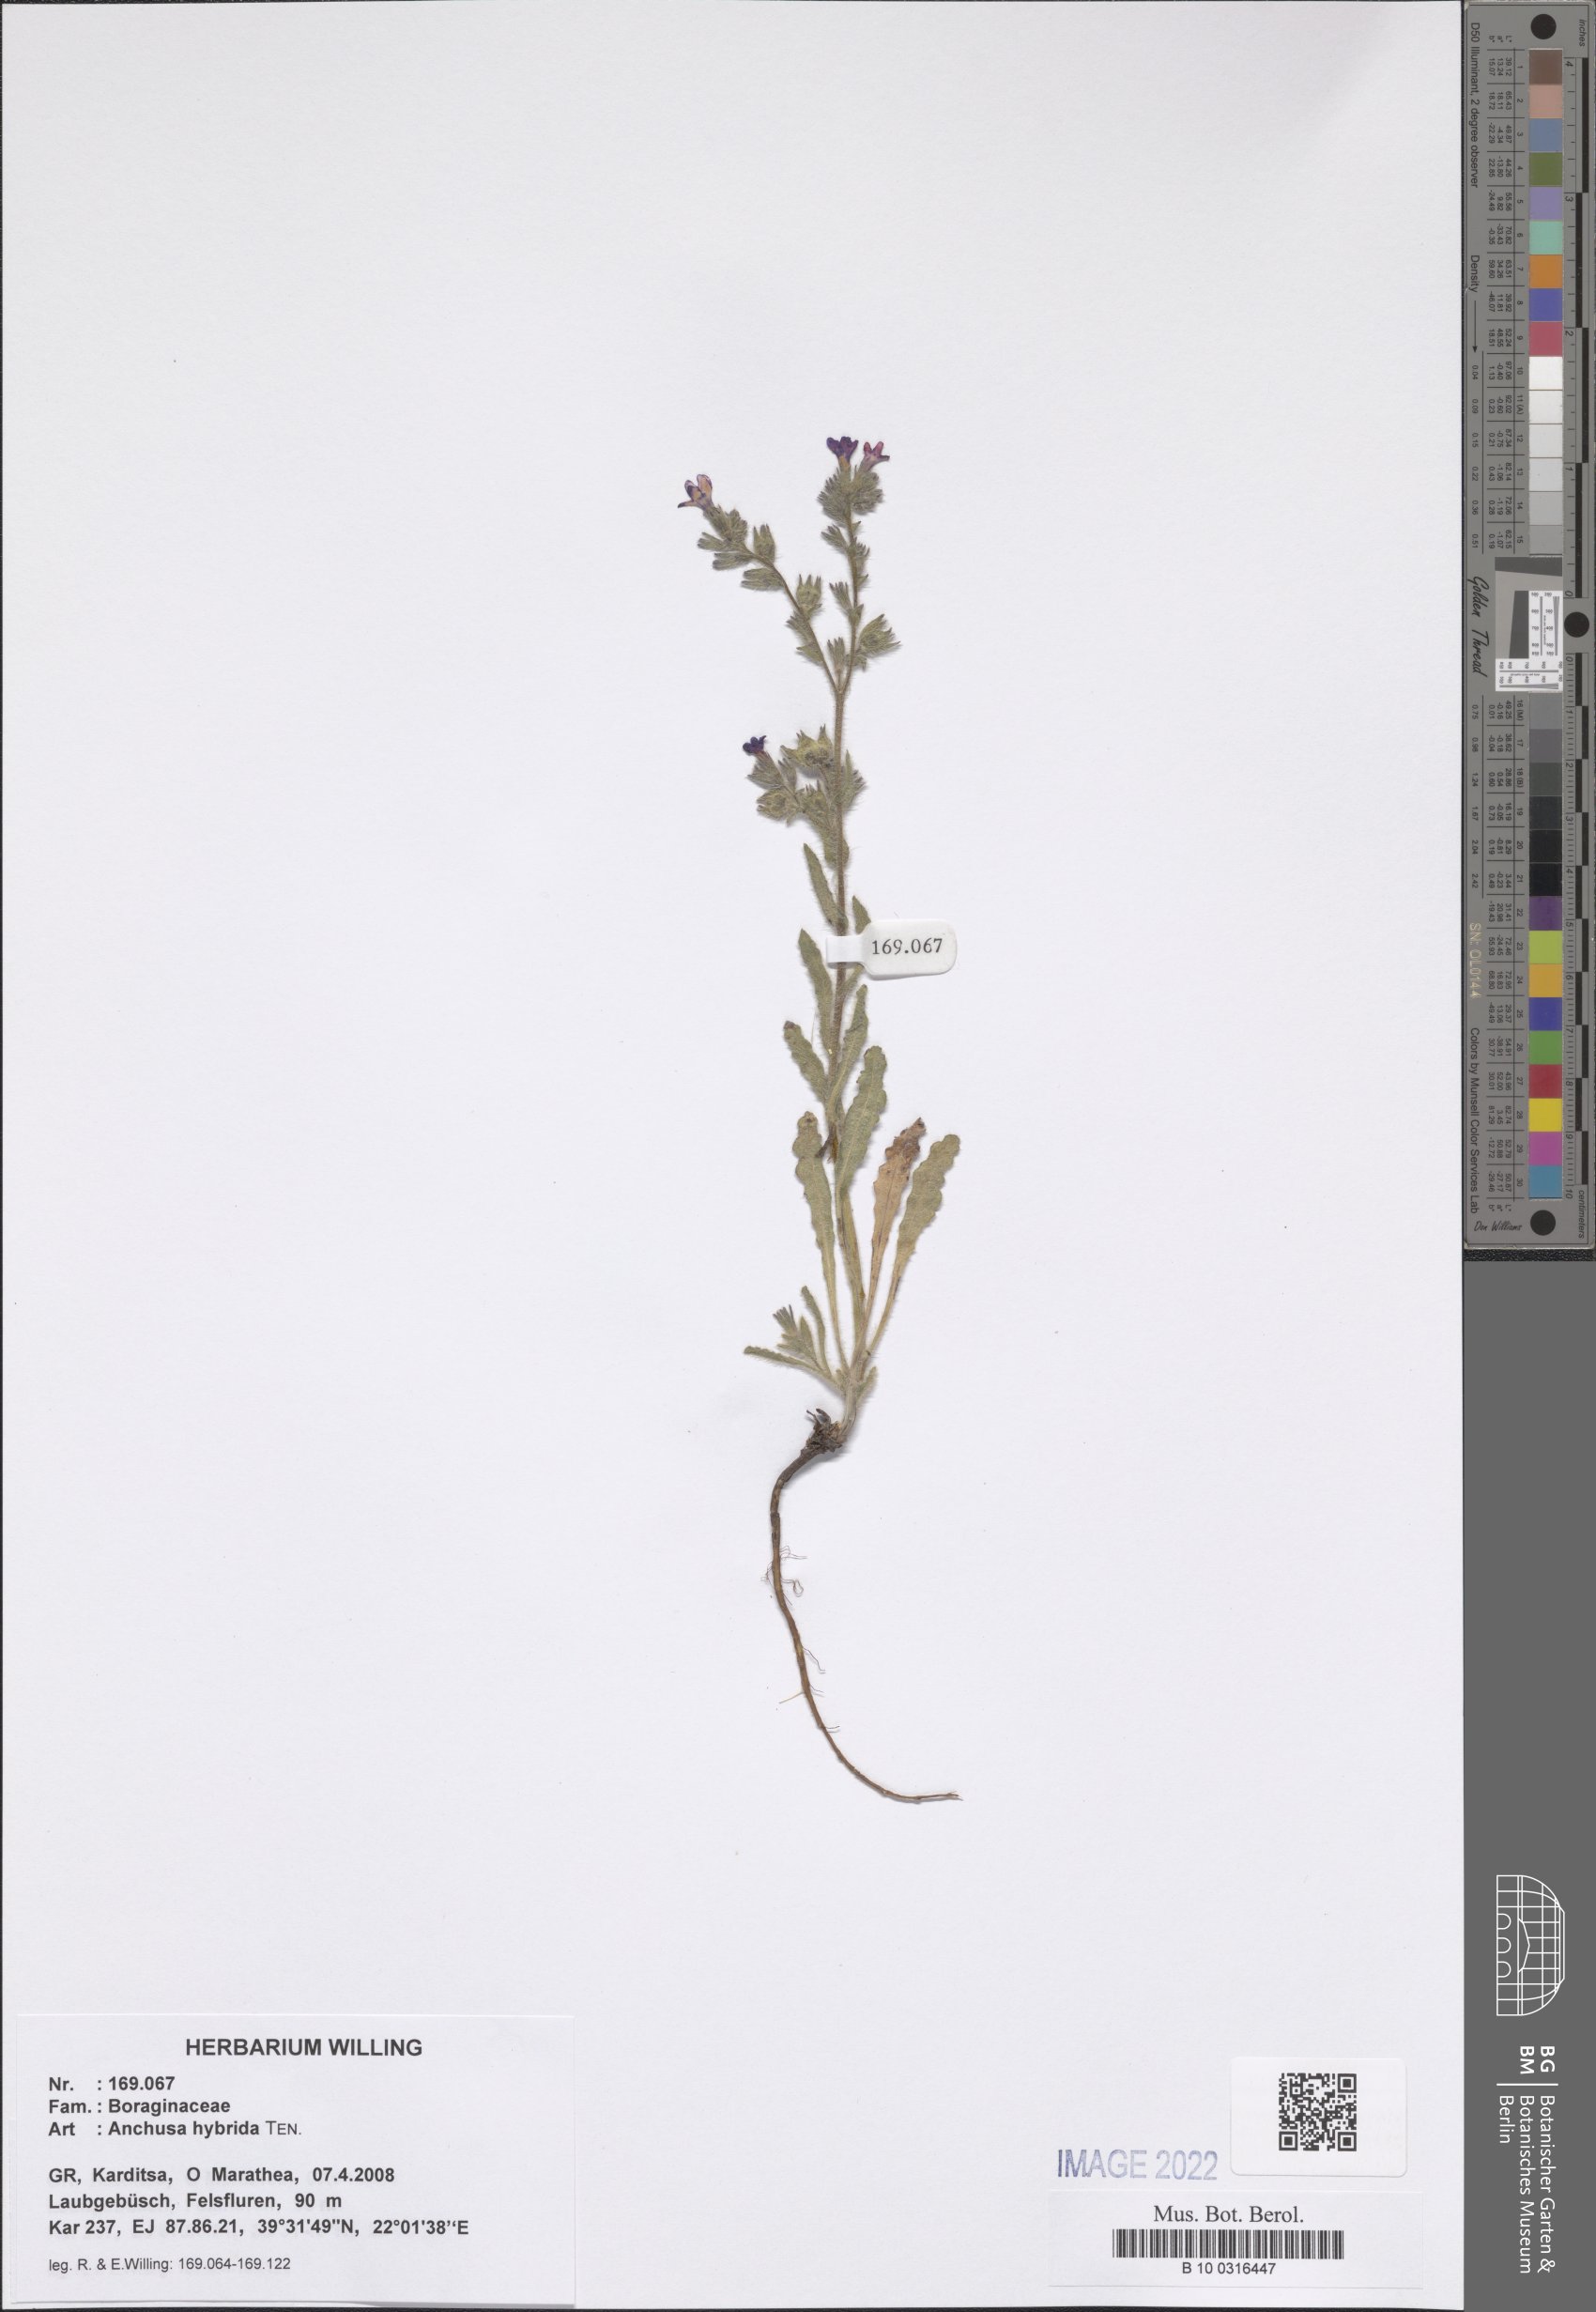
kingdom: Plantae
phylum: Tracheophyta
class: Magnoliopsida
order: Boraginales
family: Boraginaceae
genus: Anchusa
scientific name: Anchusa hybrida
